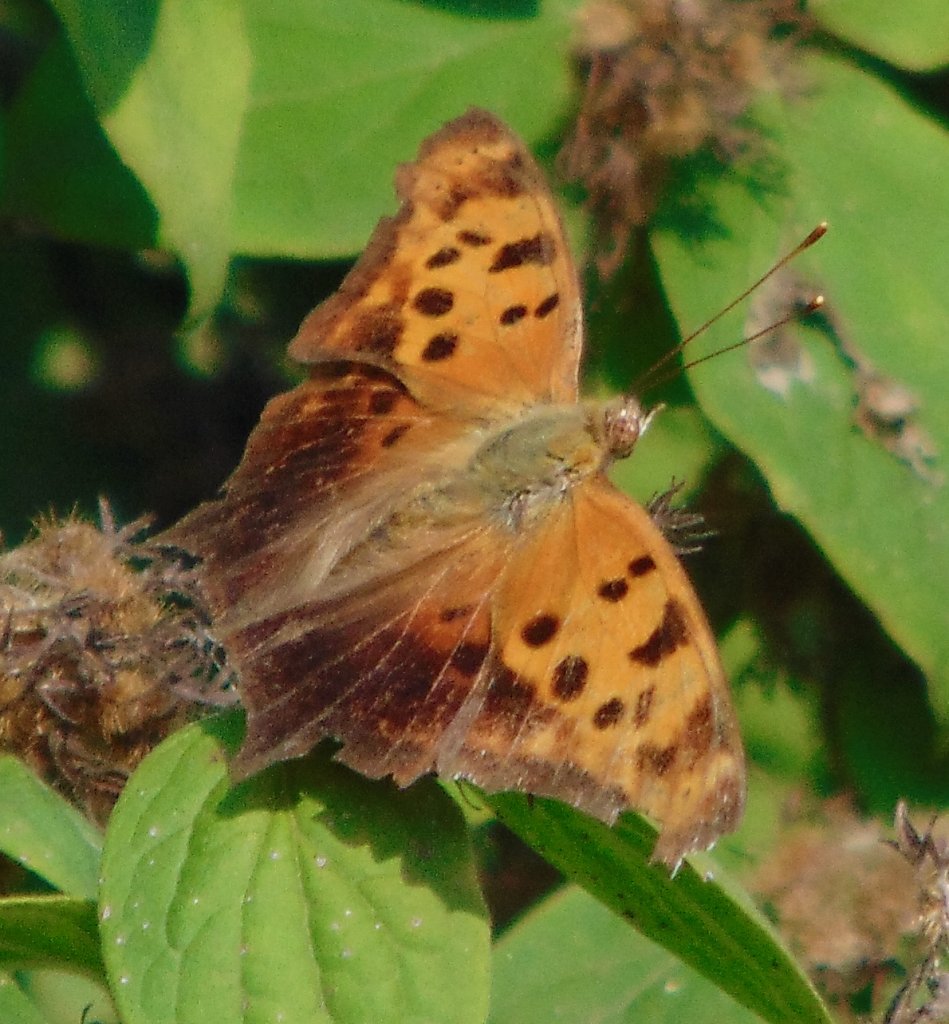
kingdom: Animalia
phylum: Arthropoda
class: Insecta
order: Lepidoptera
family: Nymphalidae
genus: Polygonia
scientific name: Polygonia interrogationis
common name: Question Mark
